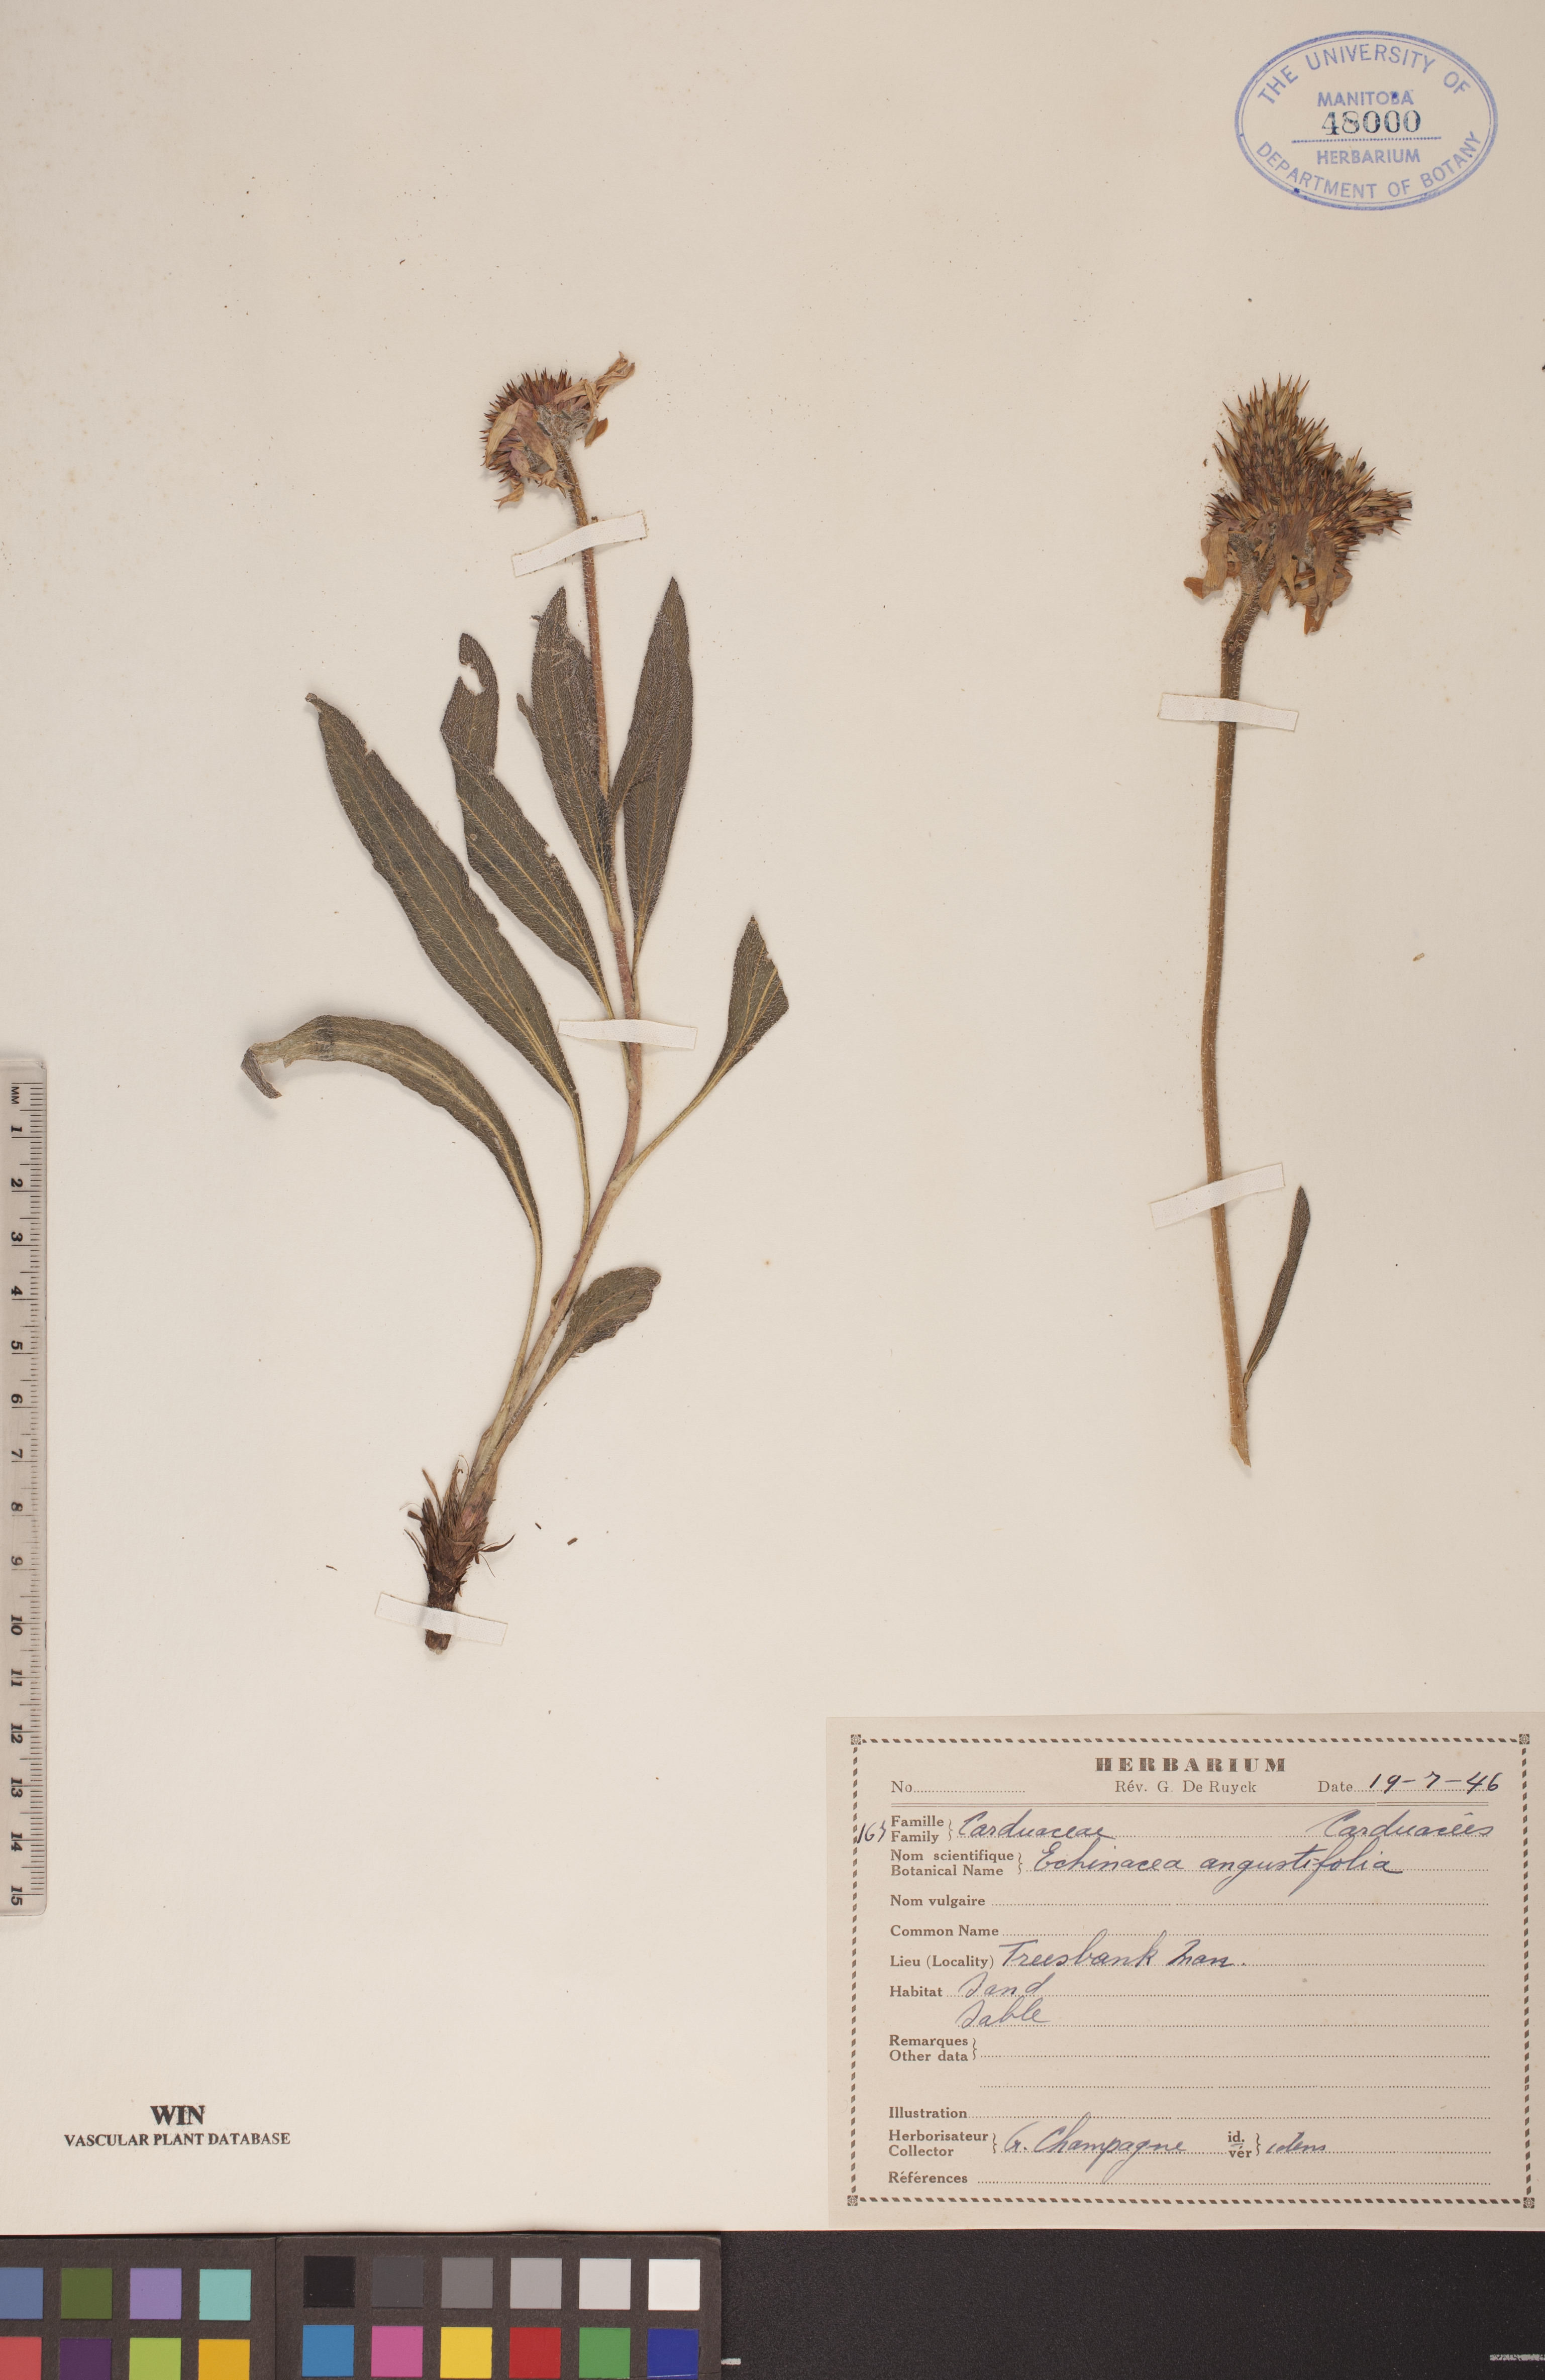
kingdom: Plantae
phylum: Tracheophyta
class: Magnoliopsida
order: Asterales
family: Asteraceae
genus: Echinacea
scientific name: Echinacea angustifolia
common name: Black-sampson echinacea
